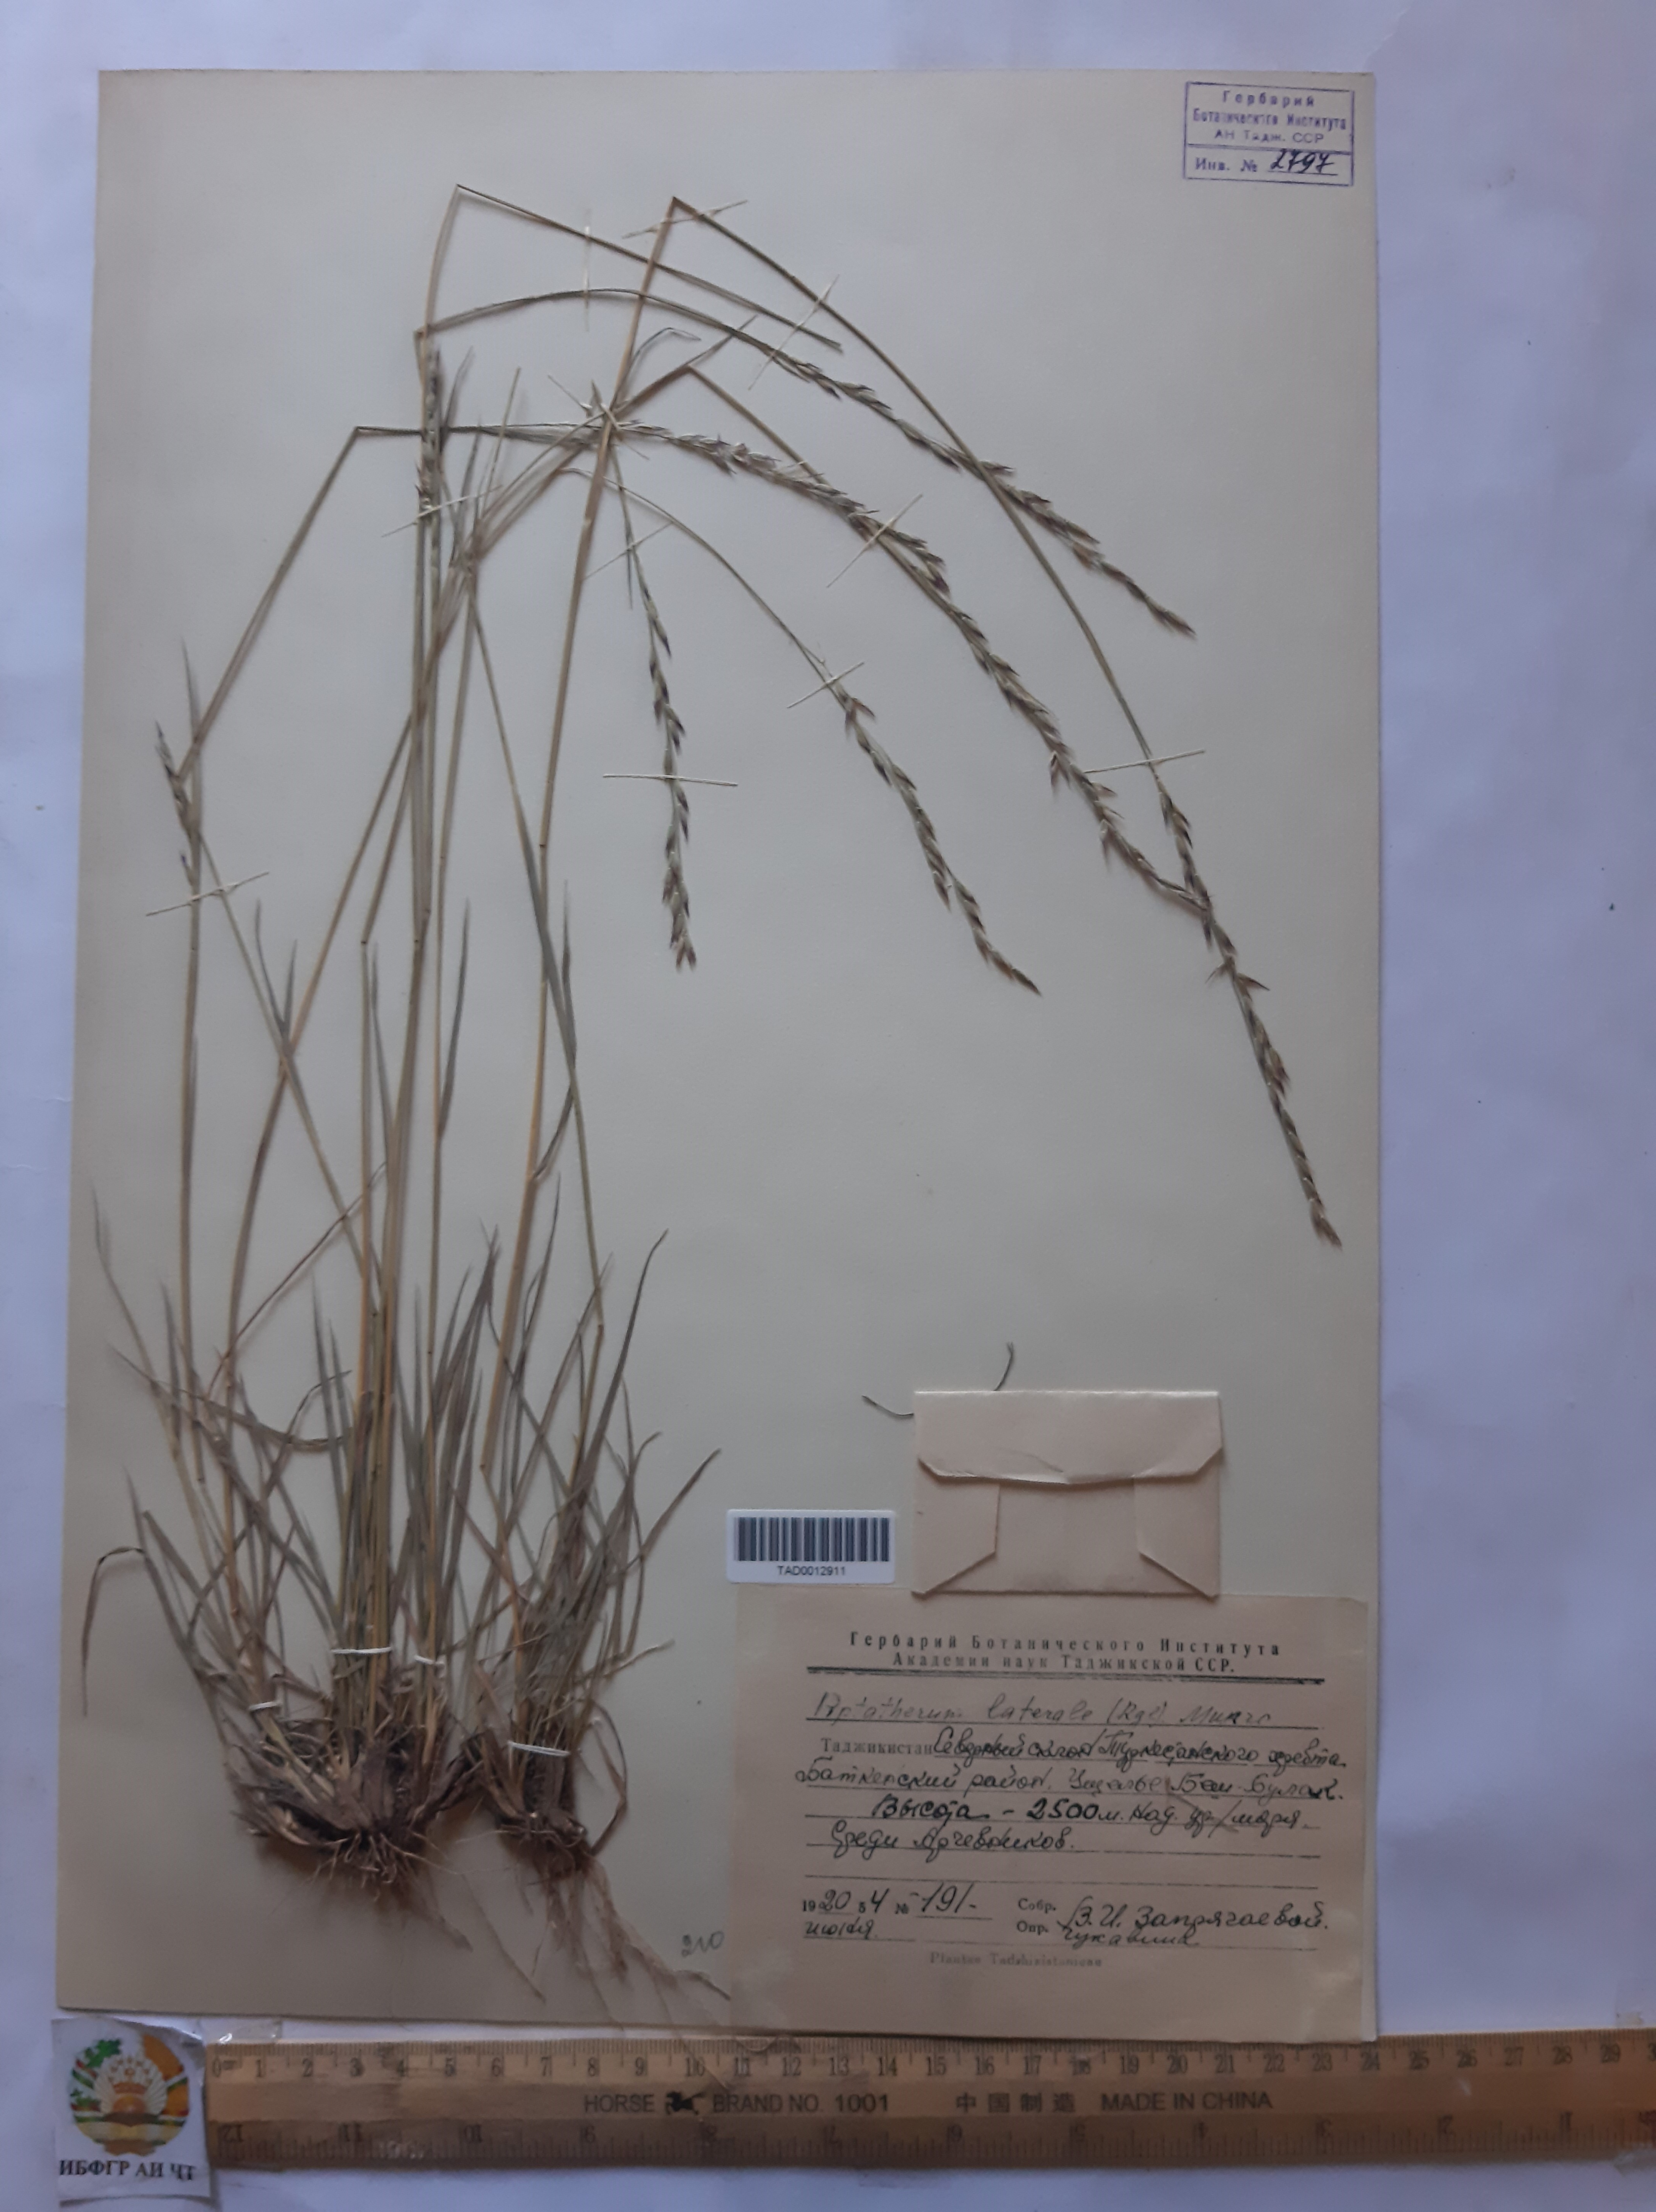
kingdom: Plantae
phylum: Tracheophyta
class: Liliopsida
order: Poales
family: Poaceae
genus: Piptatherum
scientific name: Piptatherum laterale
